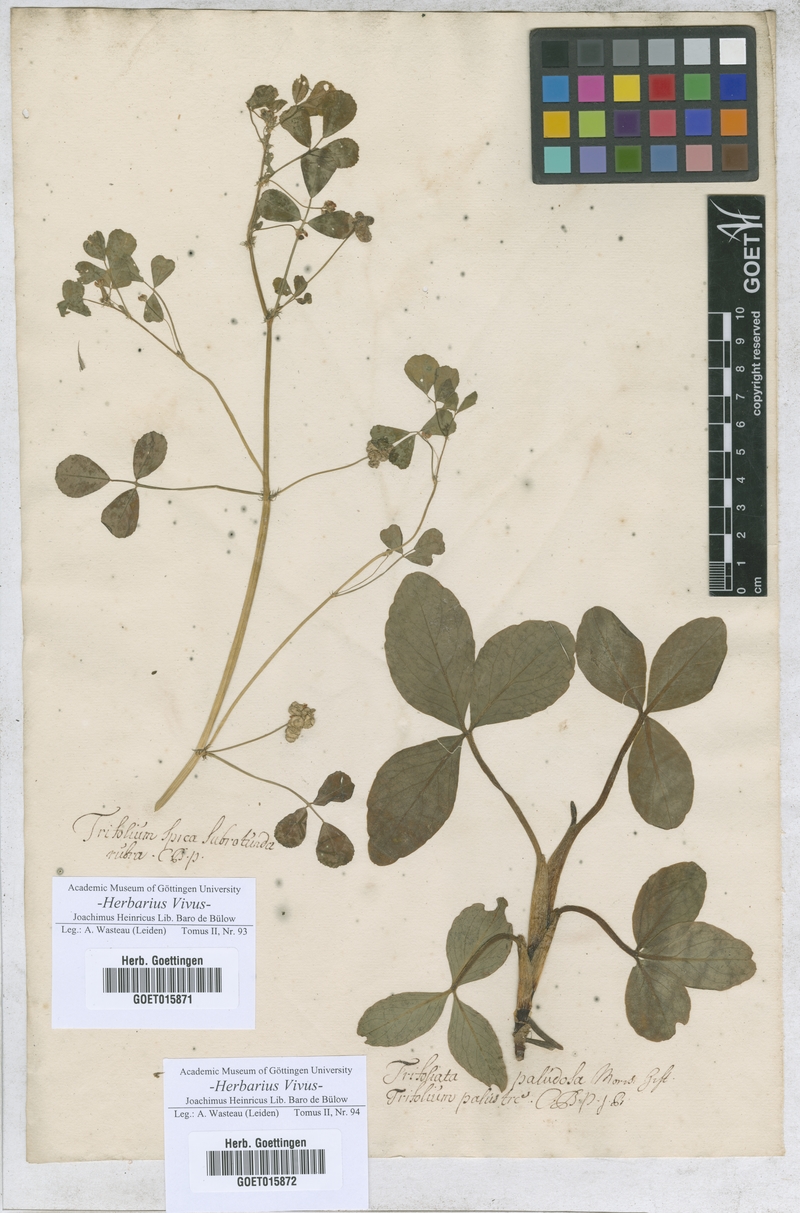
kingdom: Plantae
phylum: Tracheophyta
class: Magnoliopsida
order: Fabales
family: Fabaceae
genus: Trifolium
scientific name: Trifolium incarnatum
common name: Crimson clover
